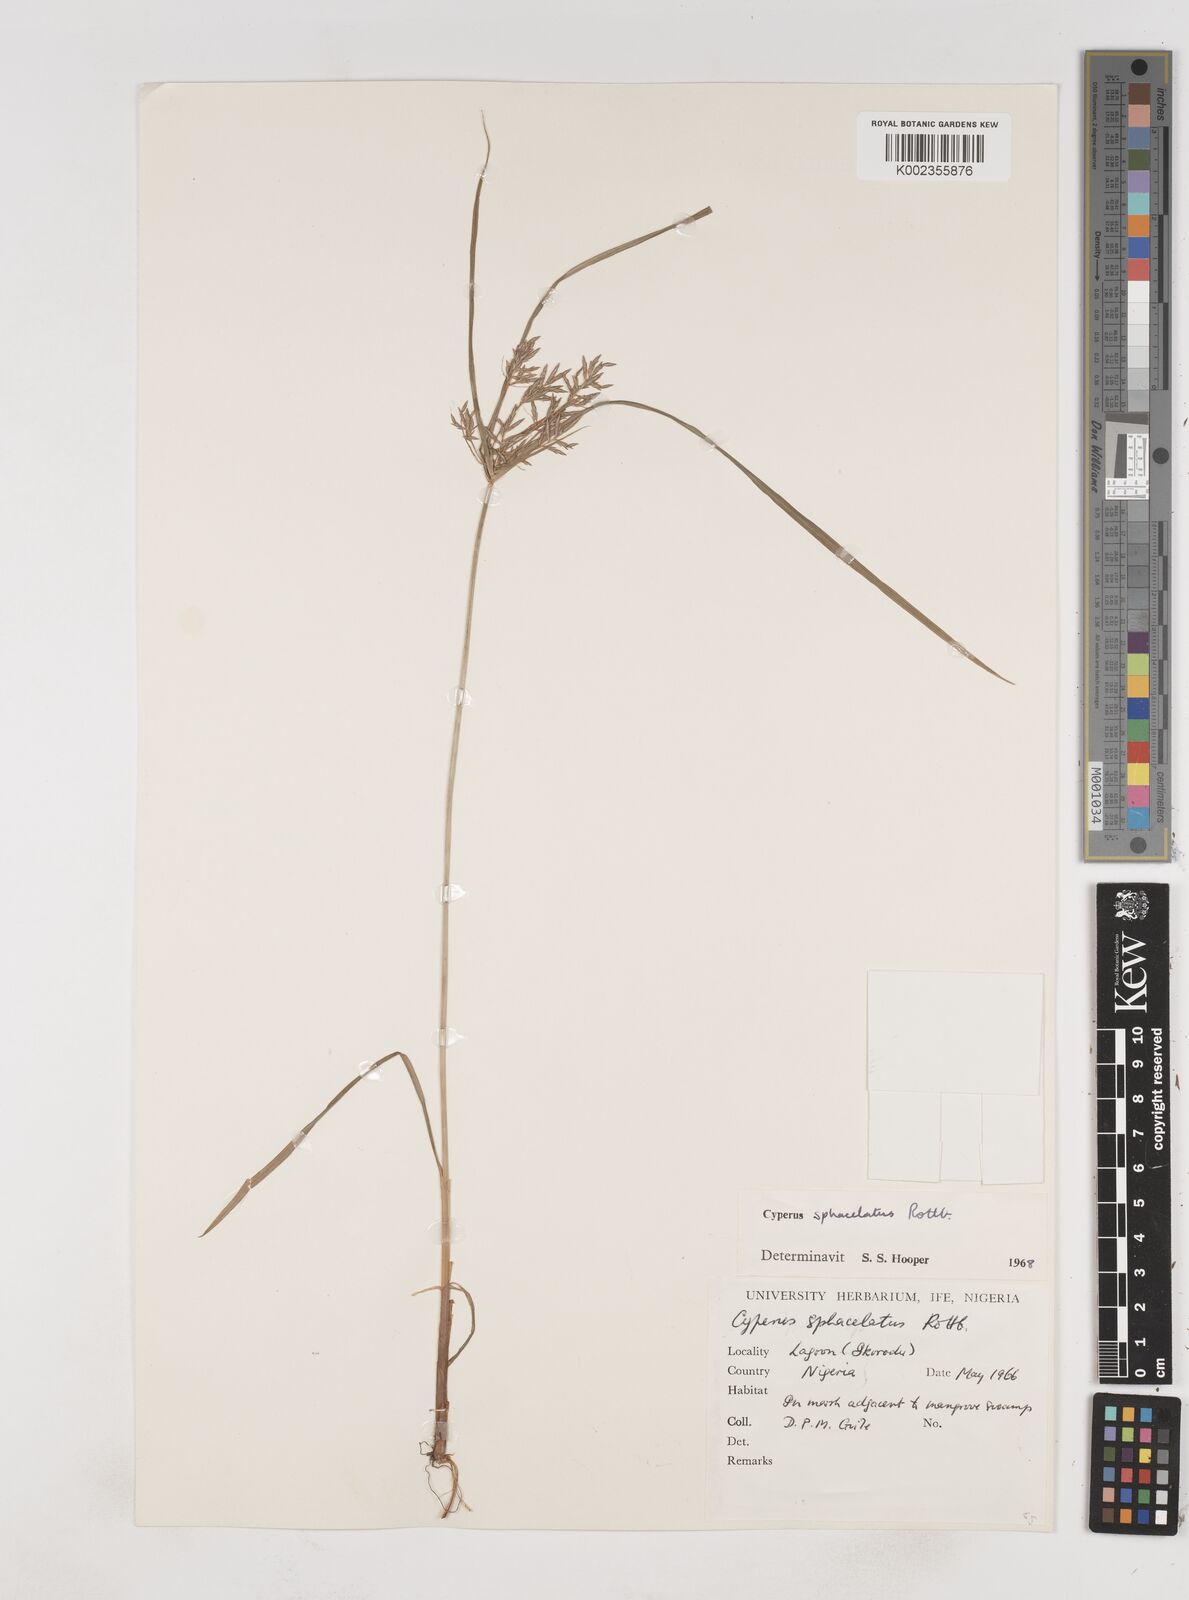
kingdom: Plantae
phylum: Tracheophyta
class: Liliopsida
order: Poales
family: Cyperaceae
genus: Cyperus
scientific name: Cyperus sphacelatus
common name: Roadside flatsedge
